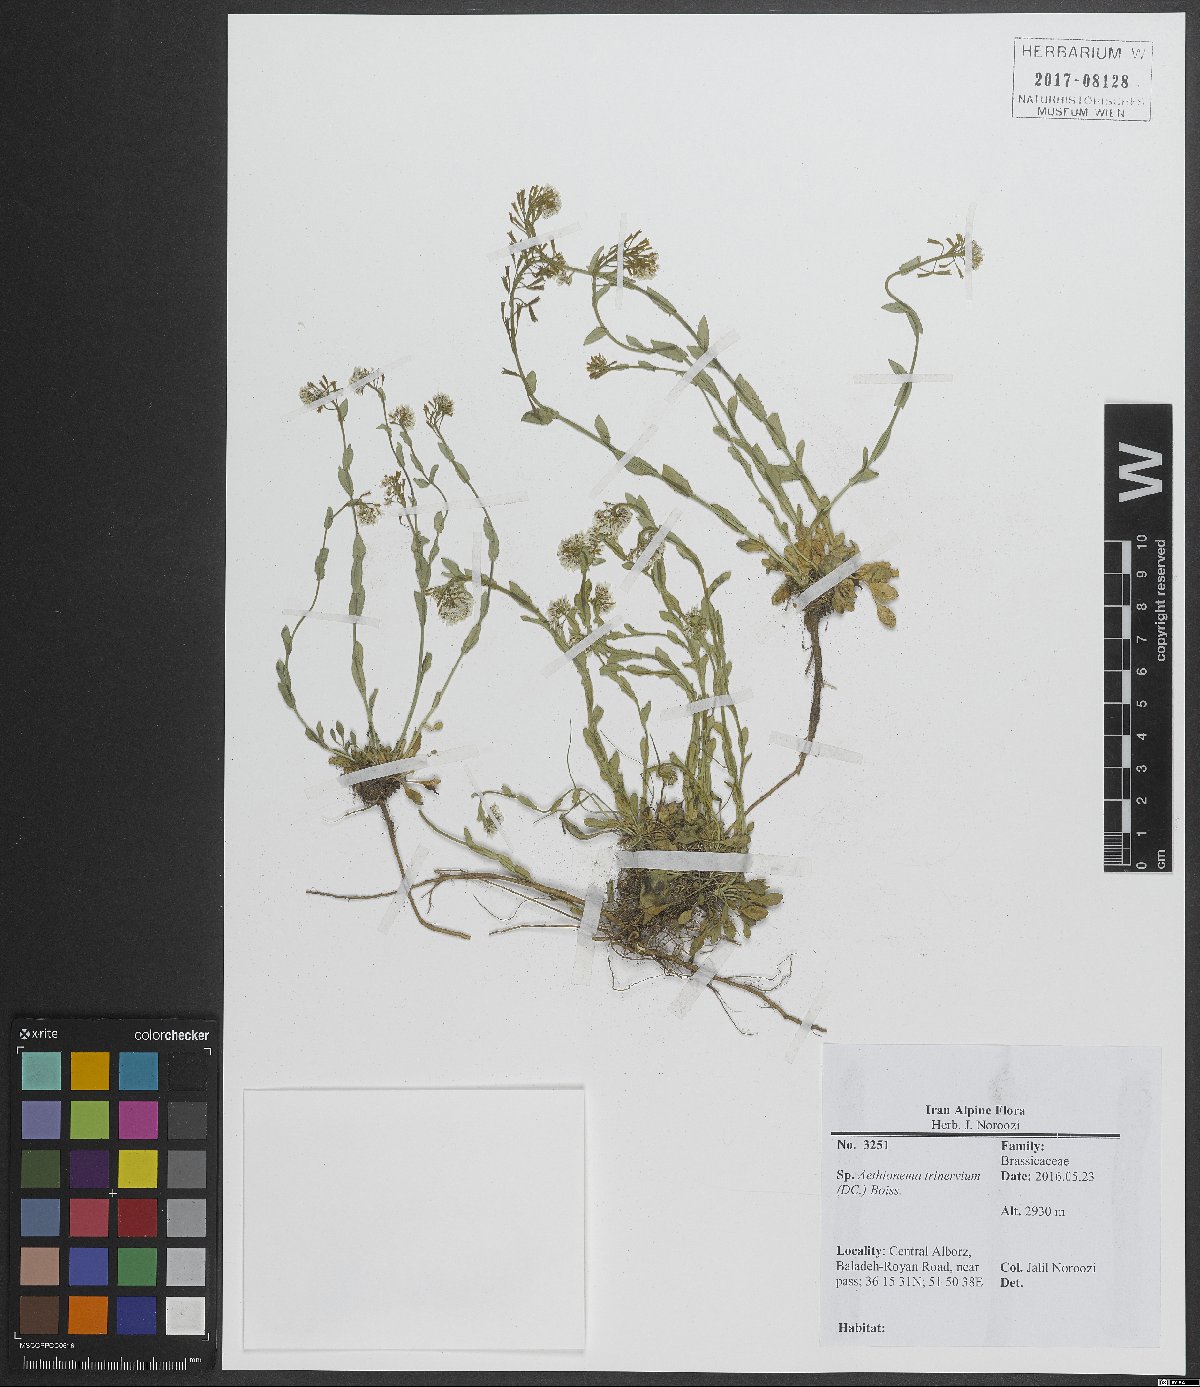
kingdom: Plantae
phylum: Tracheophyta
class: Magnoliopsida
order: Brassicales
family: Brassicaceae
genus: Noccaea
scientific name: Noccaea trinervia
